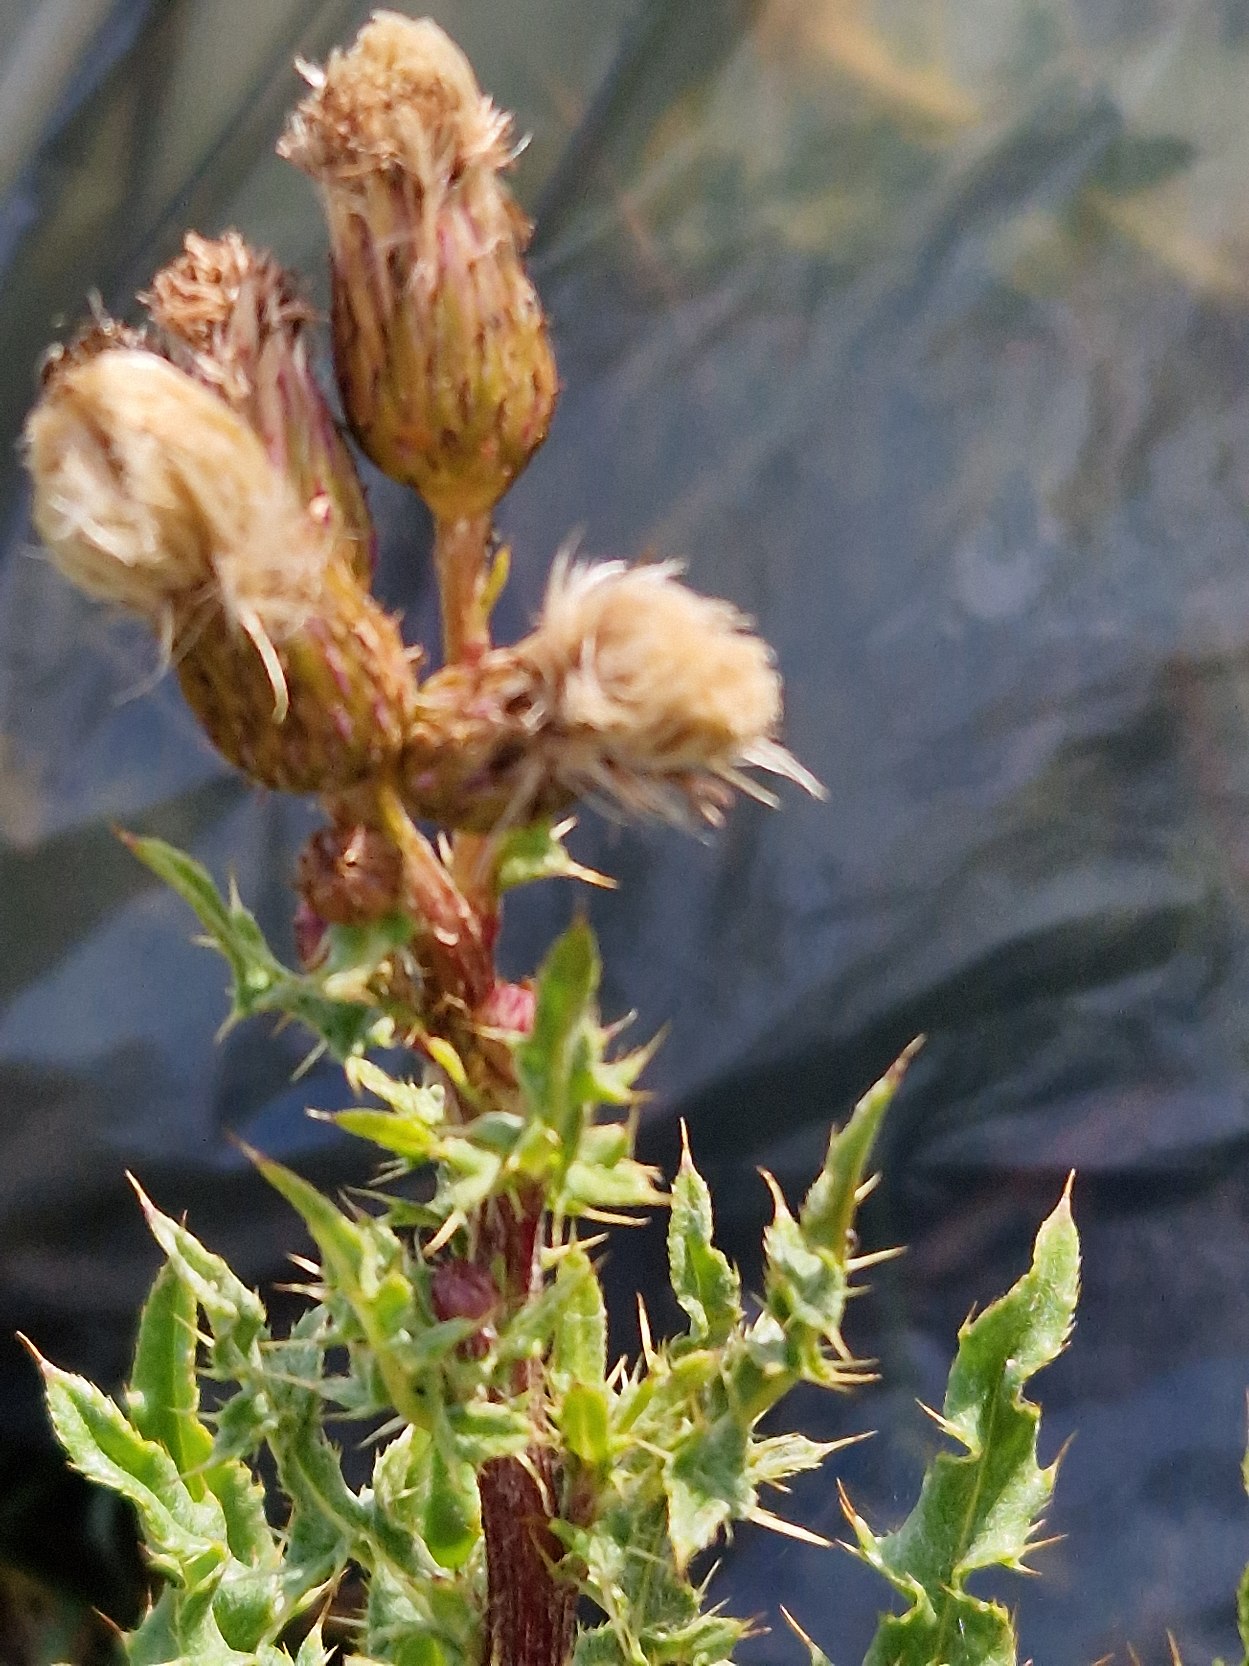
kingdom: Plantae
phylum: Tracheophyta
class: Magnoliopsida
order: Asterales
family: Asteraceae
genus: Cirsium
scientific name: Cirsium arvense
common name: Ager-tidsel
